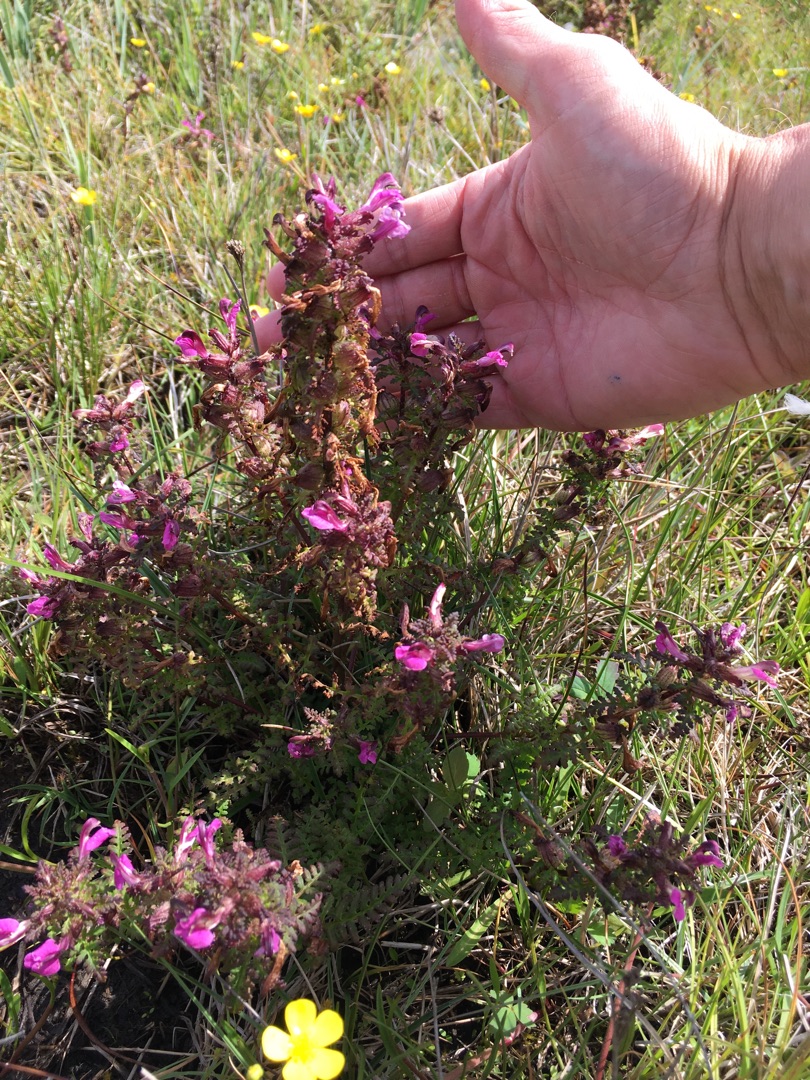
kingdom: Plantae
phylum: Tracheophyta
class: Magnoliopsida
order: Lamiales
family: Orobanchaceae
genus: Pedicularis
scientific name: Pedicularis palustris
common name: Eng-troldurt
